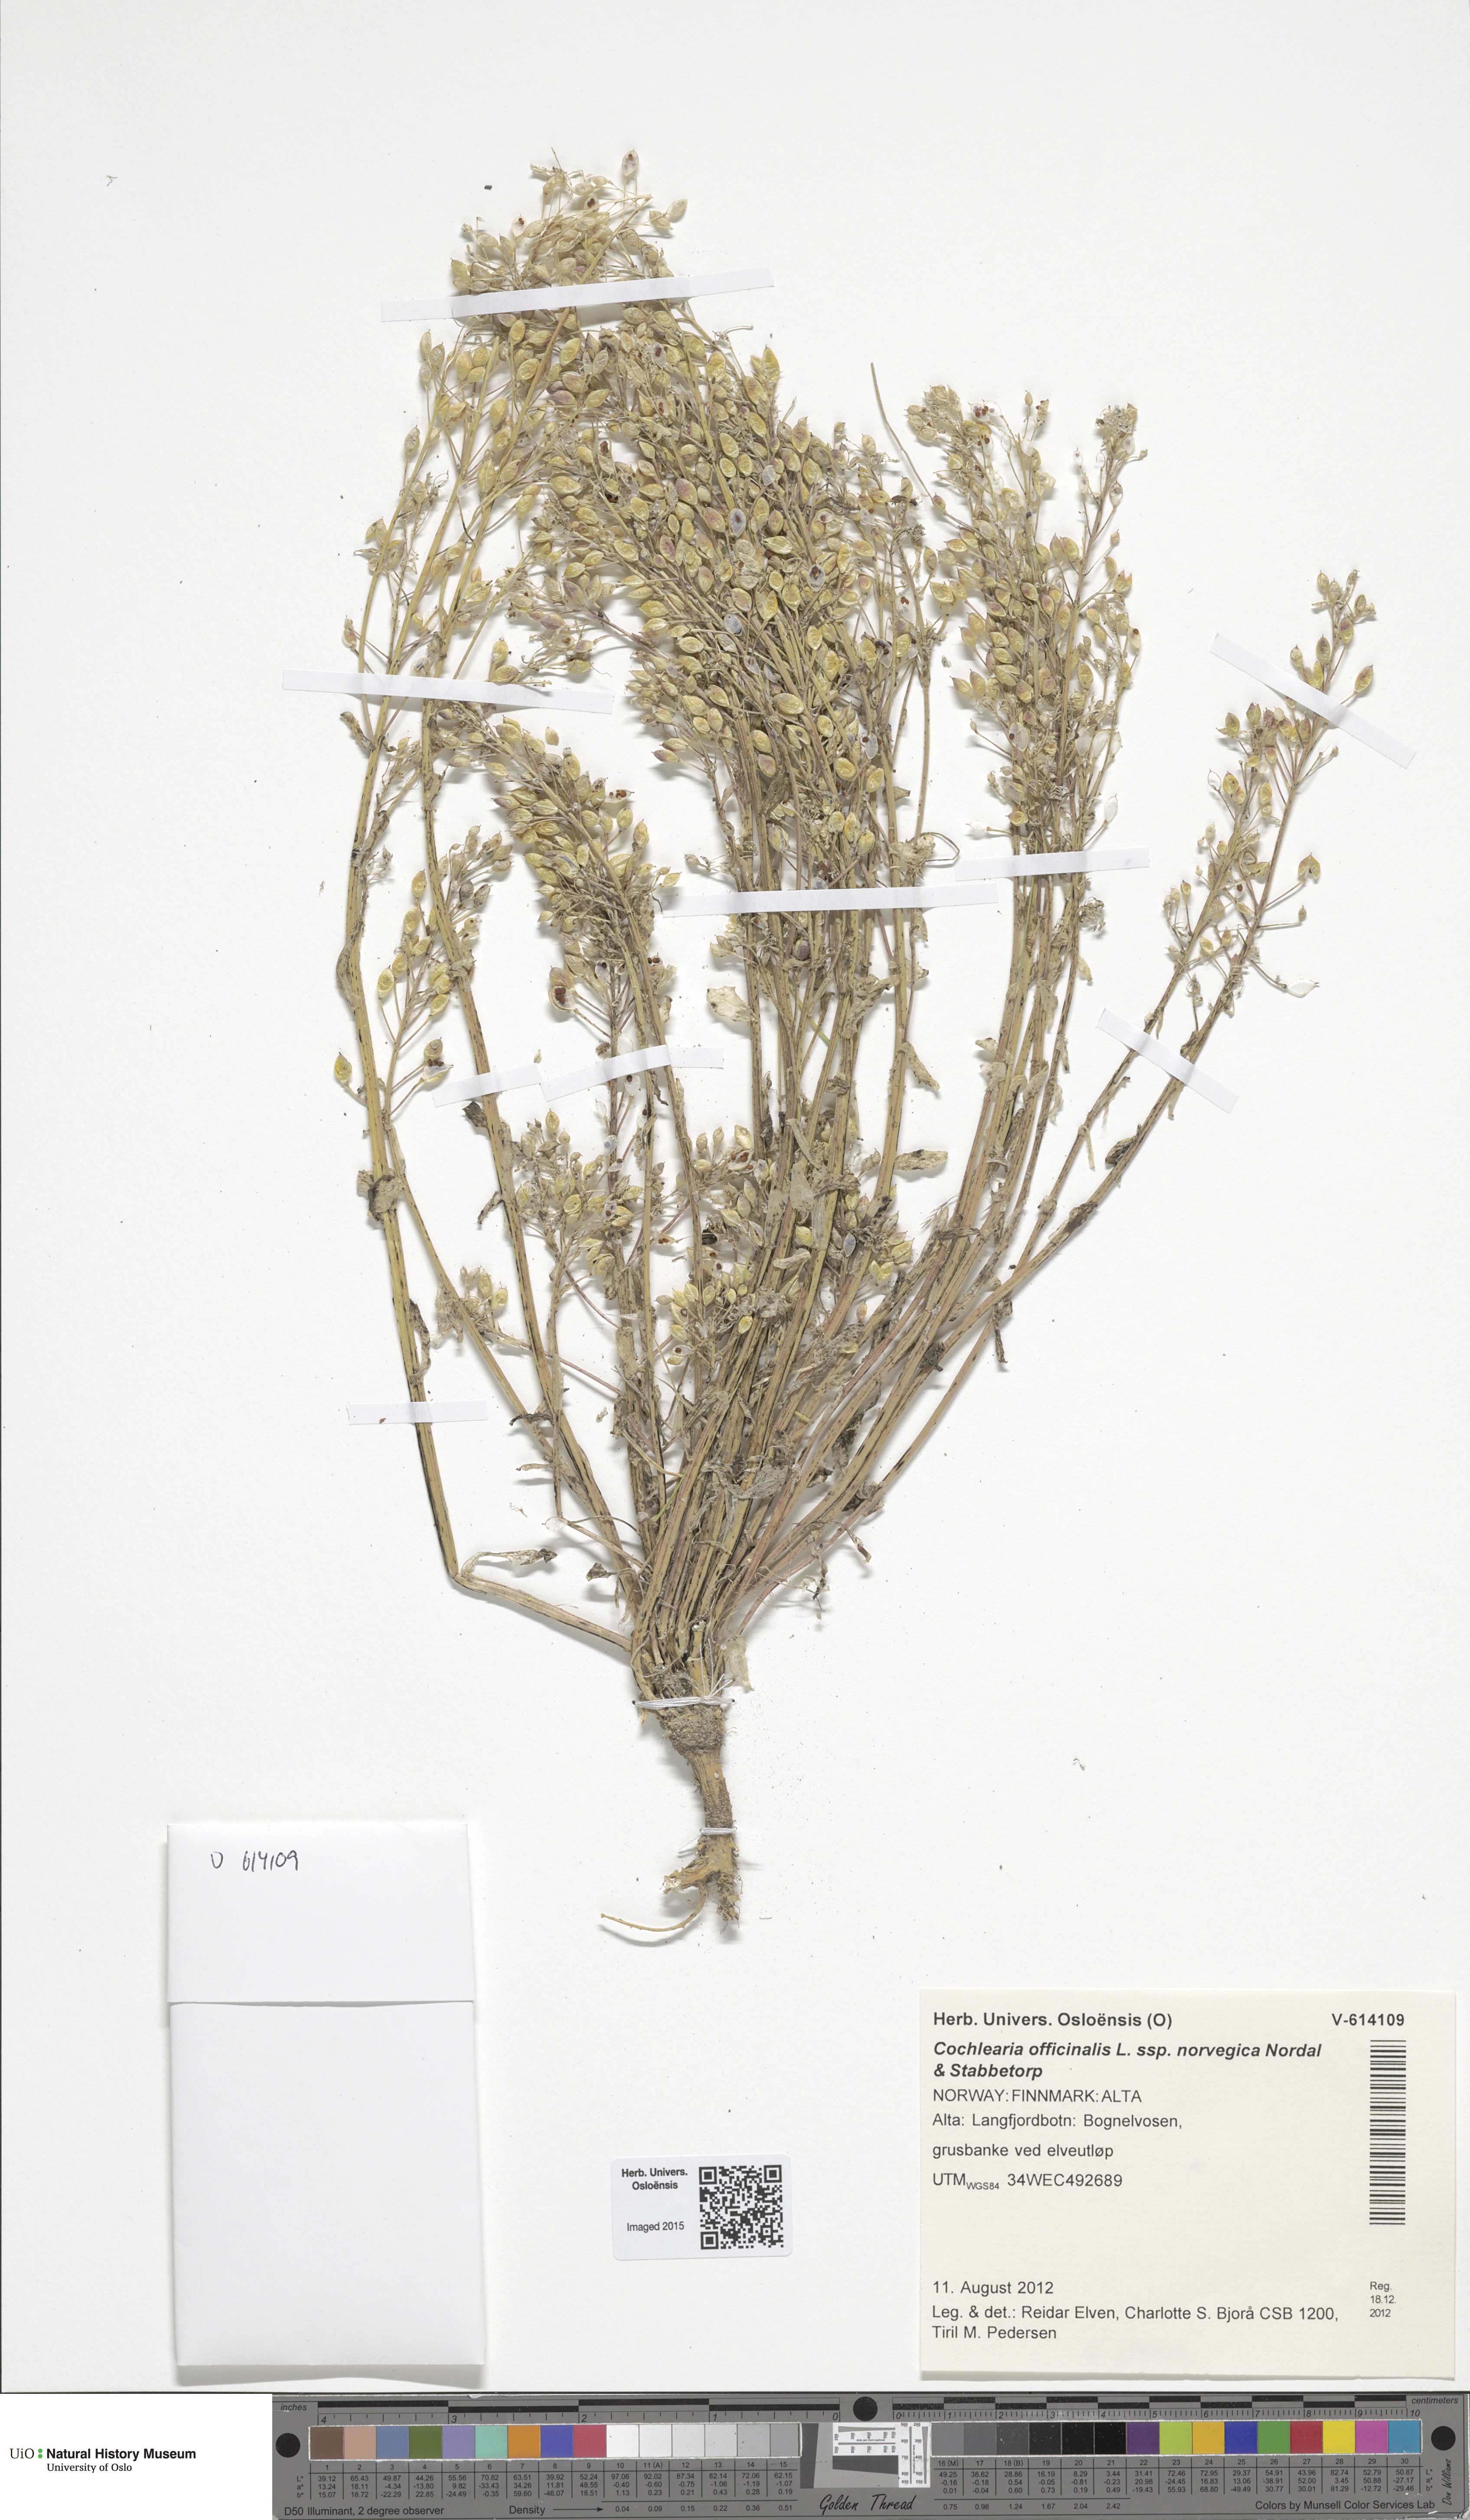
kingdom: Plantae
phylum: Tracheophyta
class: Magnoliopsida
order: Brassicales
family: Brassicaceae
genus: Cochlearia
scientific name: Cochlearia officinalis
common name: Scurvy-grass
